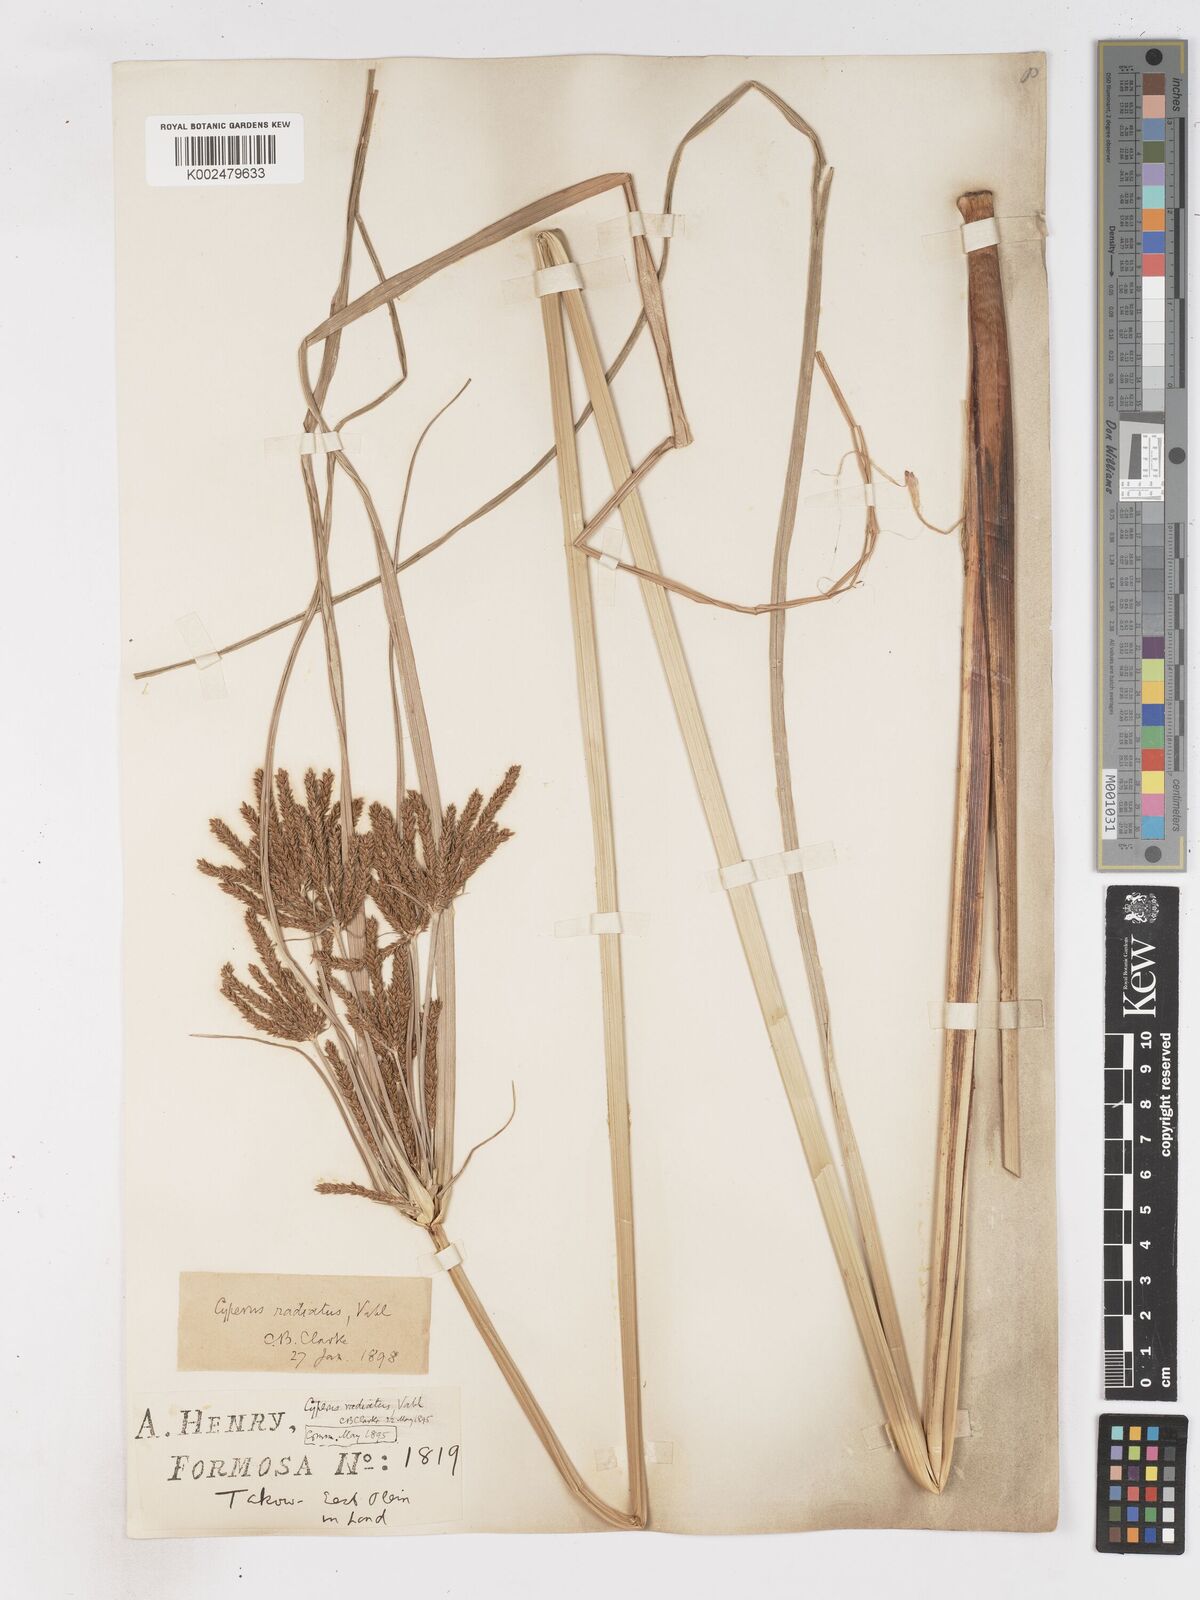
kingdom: Plantae
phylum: Tracheophyta
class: Liliopsida
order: Poales
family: Cyperaceae
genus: Cyperus
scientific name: Cyperus imbricatus
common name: Shingle flatsedge
